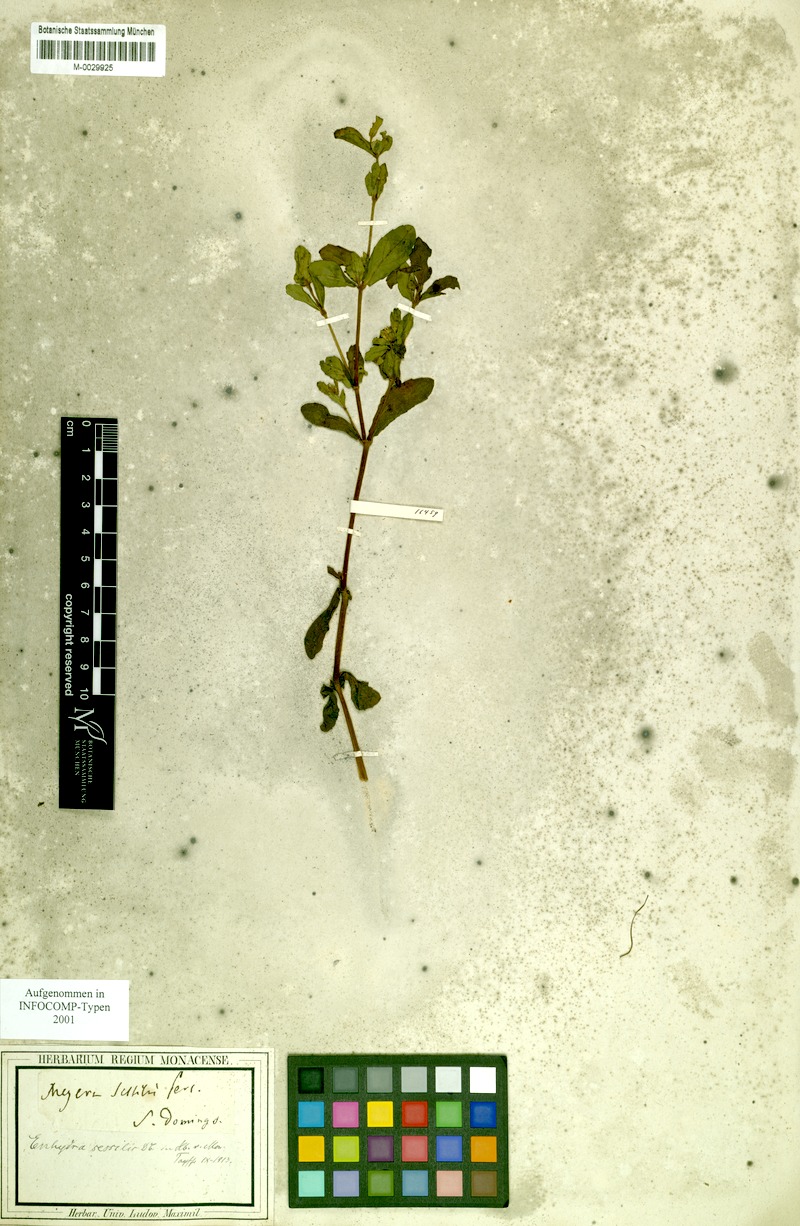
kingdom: Animalia
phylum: Chordata
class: Mammalia
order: Carnivora
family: Mustelidae
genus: Enhydra
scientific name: Enhydra
